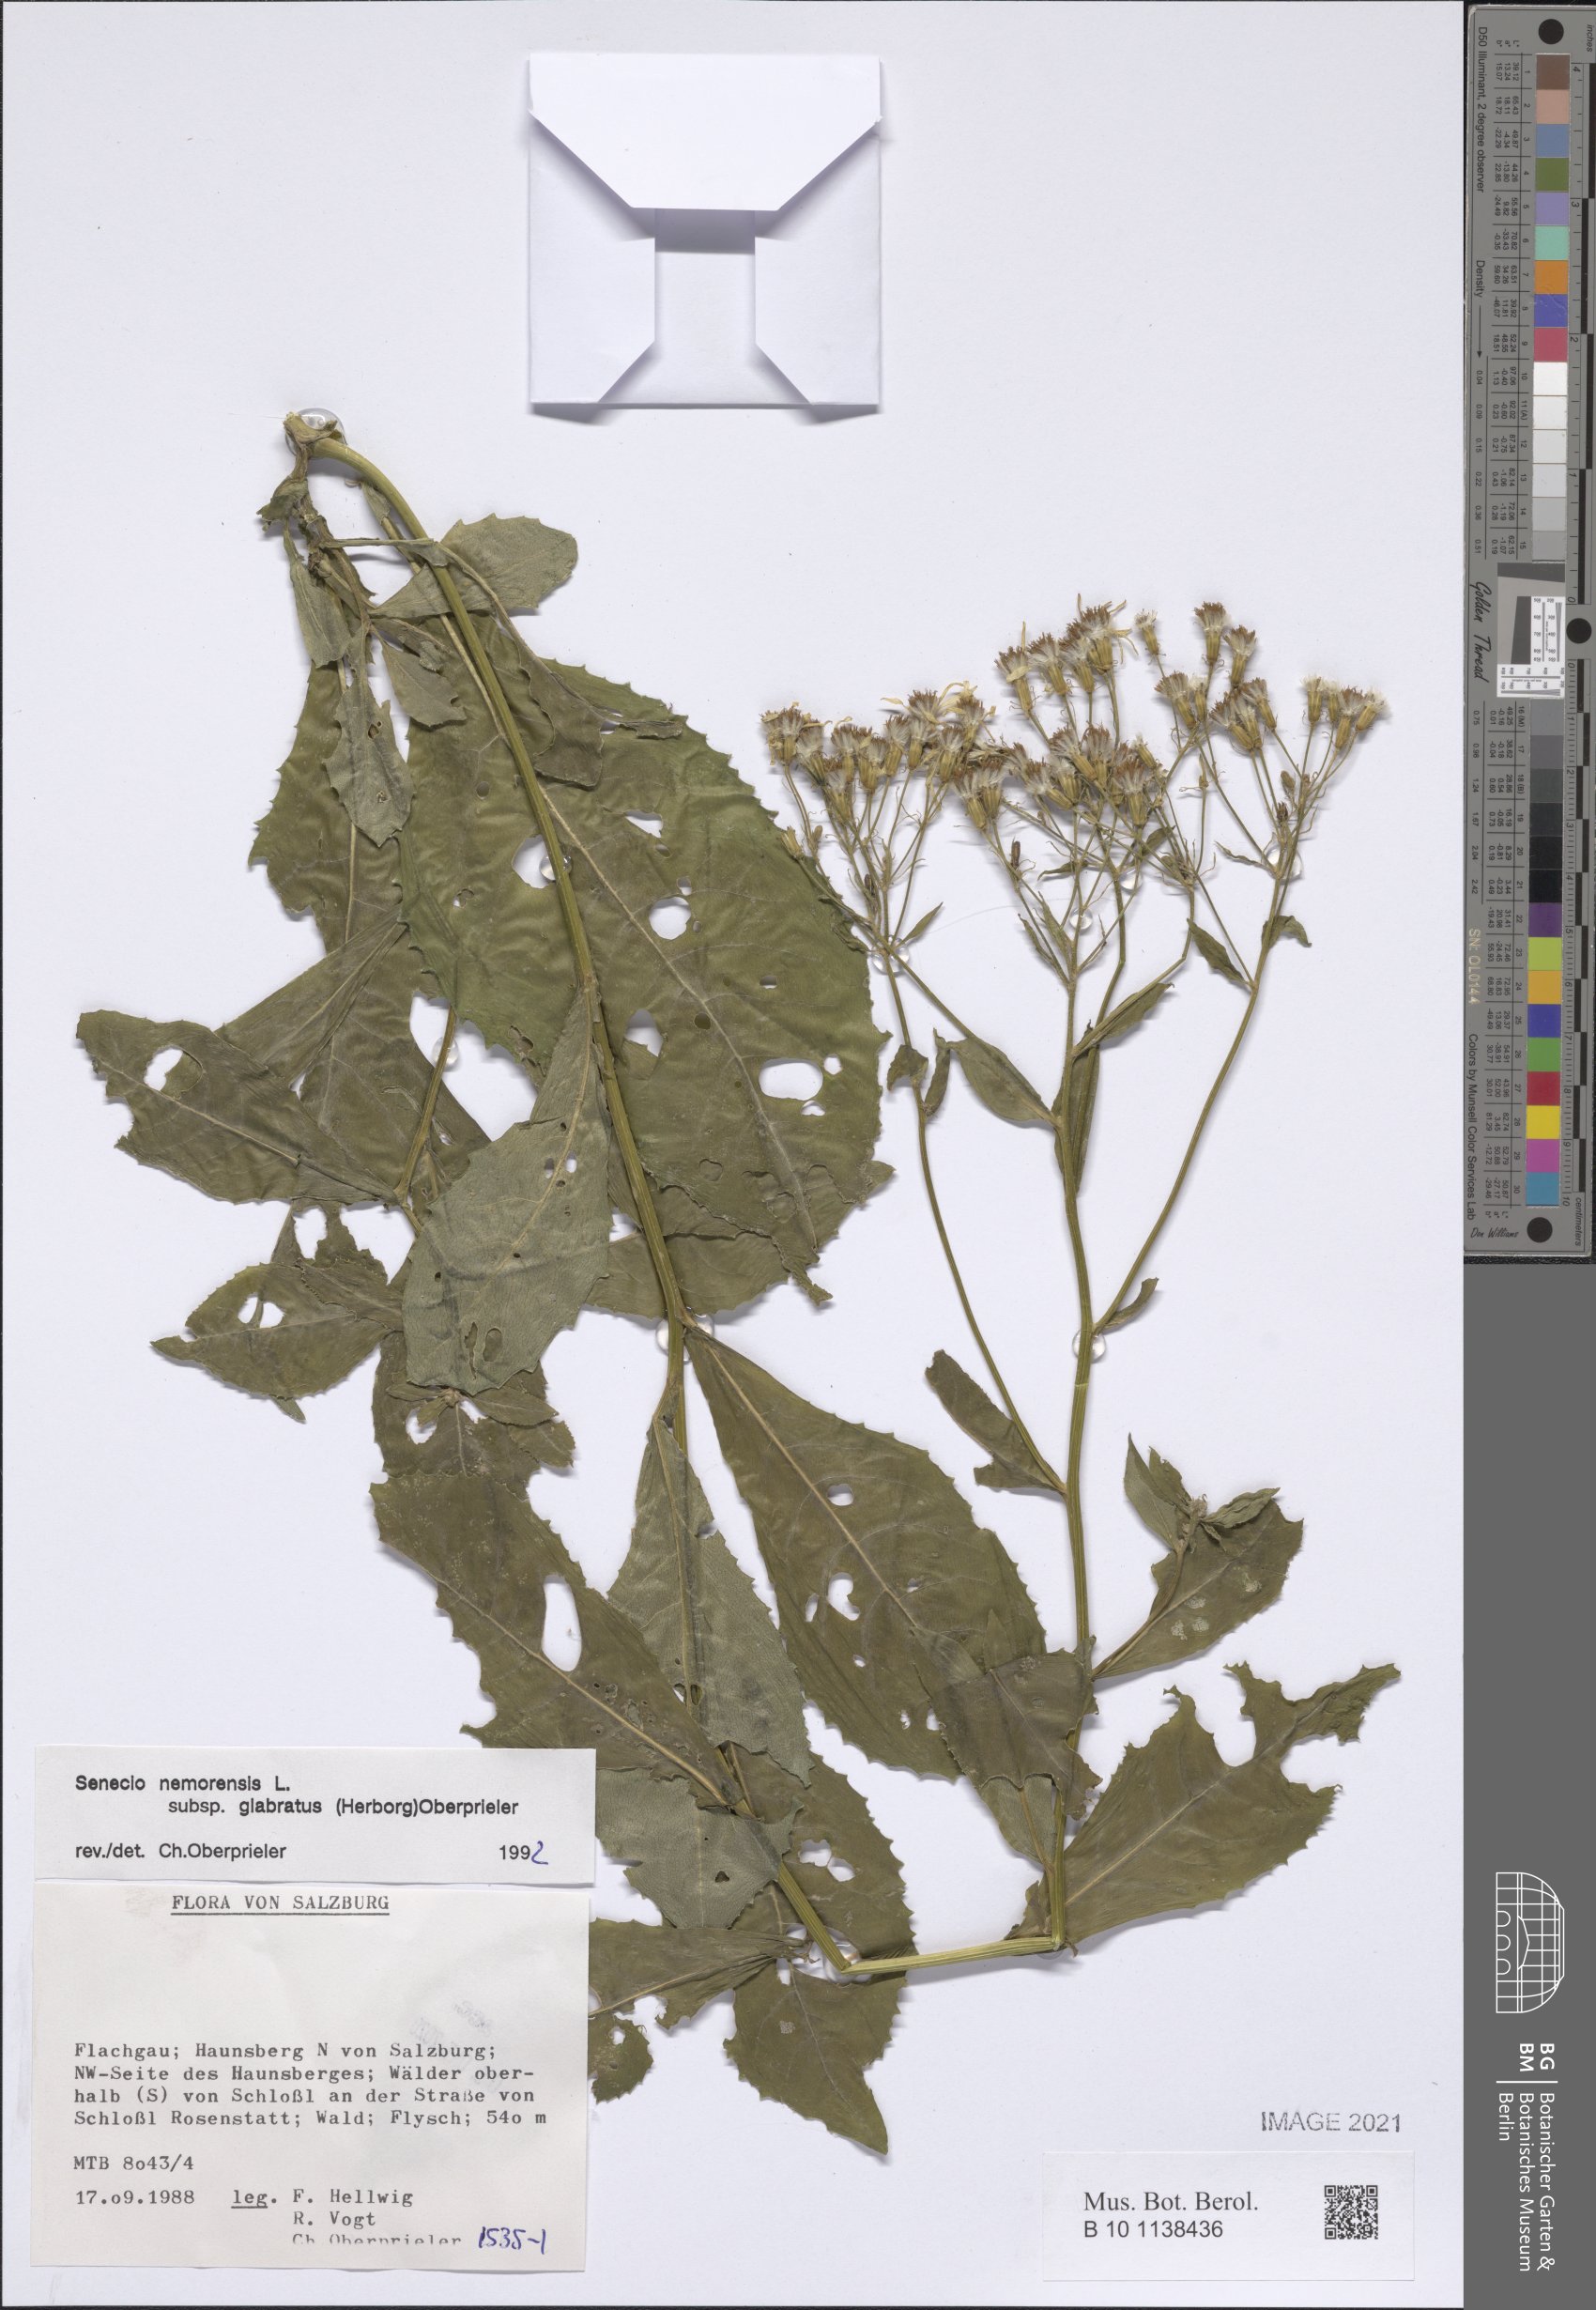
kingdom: Plantae
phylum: Tracheophyta
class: Magnoliopsida
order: Asterales
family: Asteraceae
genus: Senecio
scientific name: Senecio germanicus
